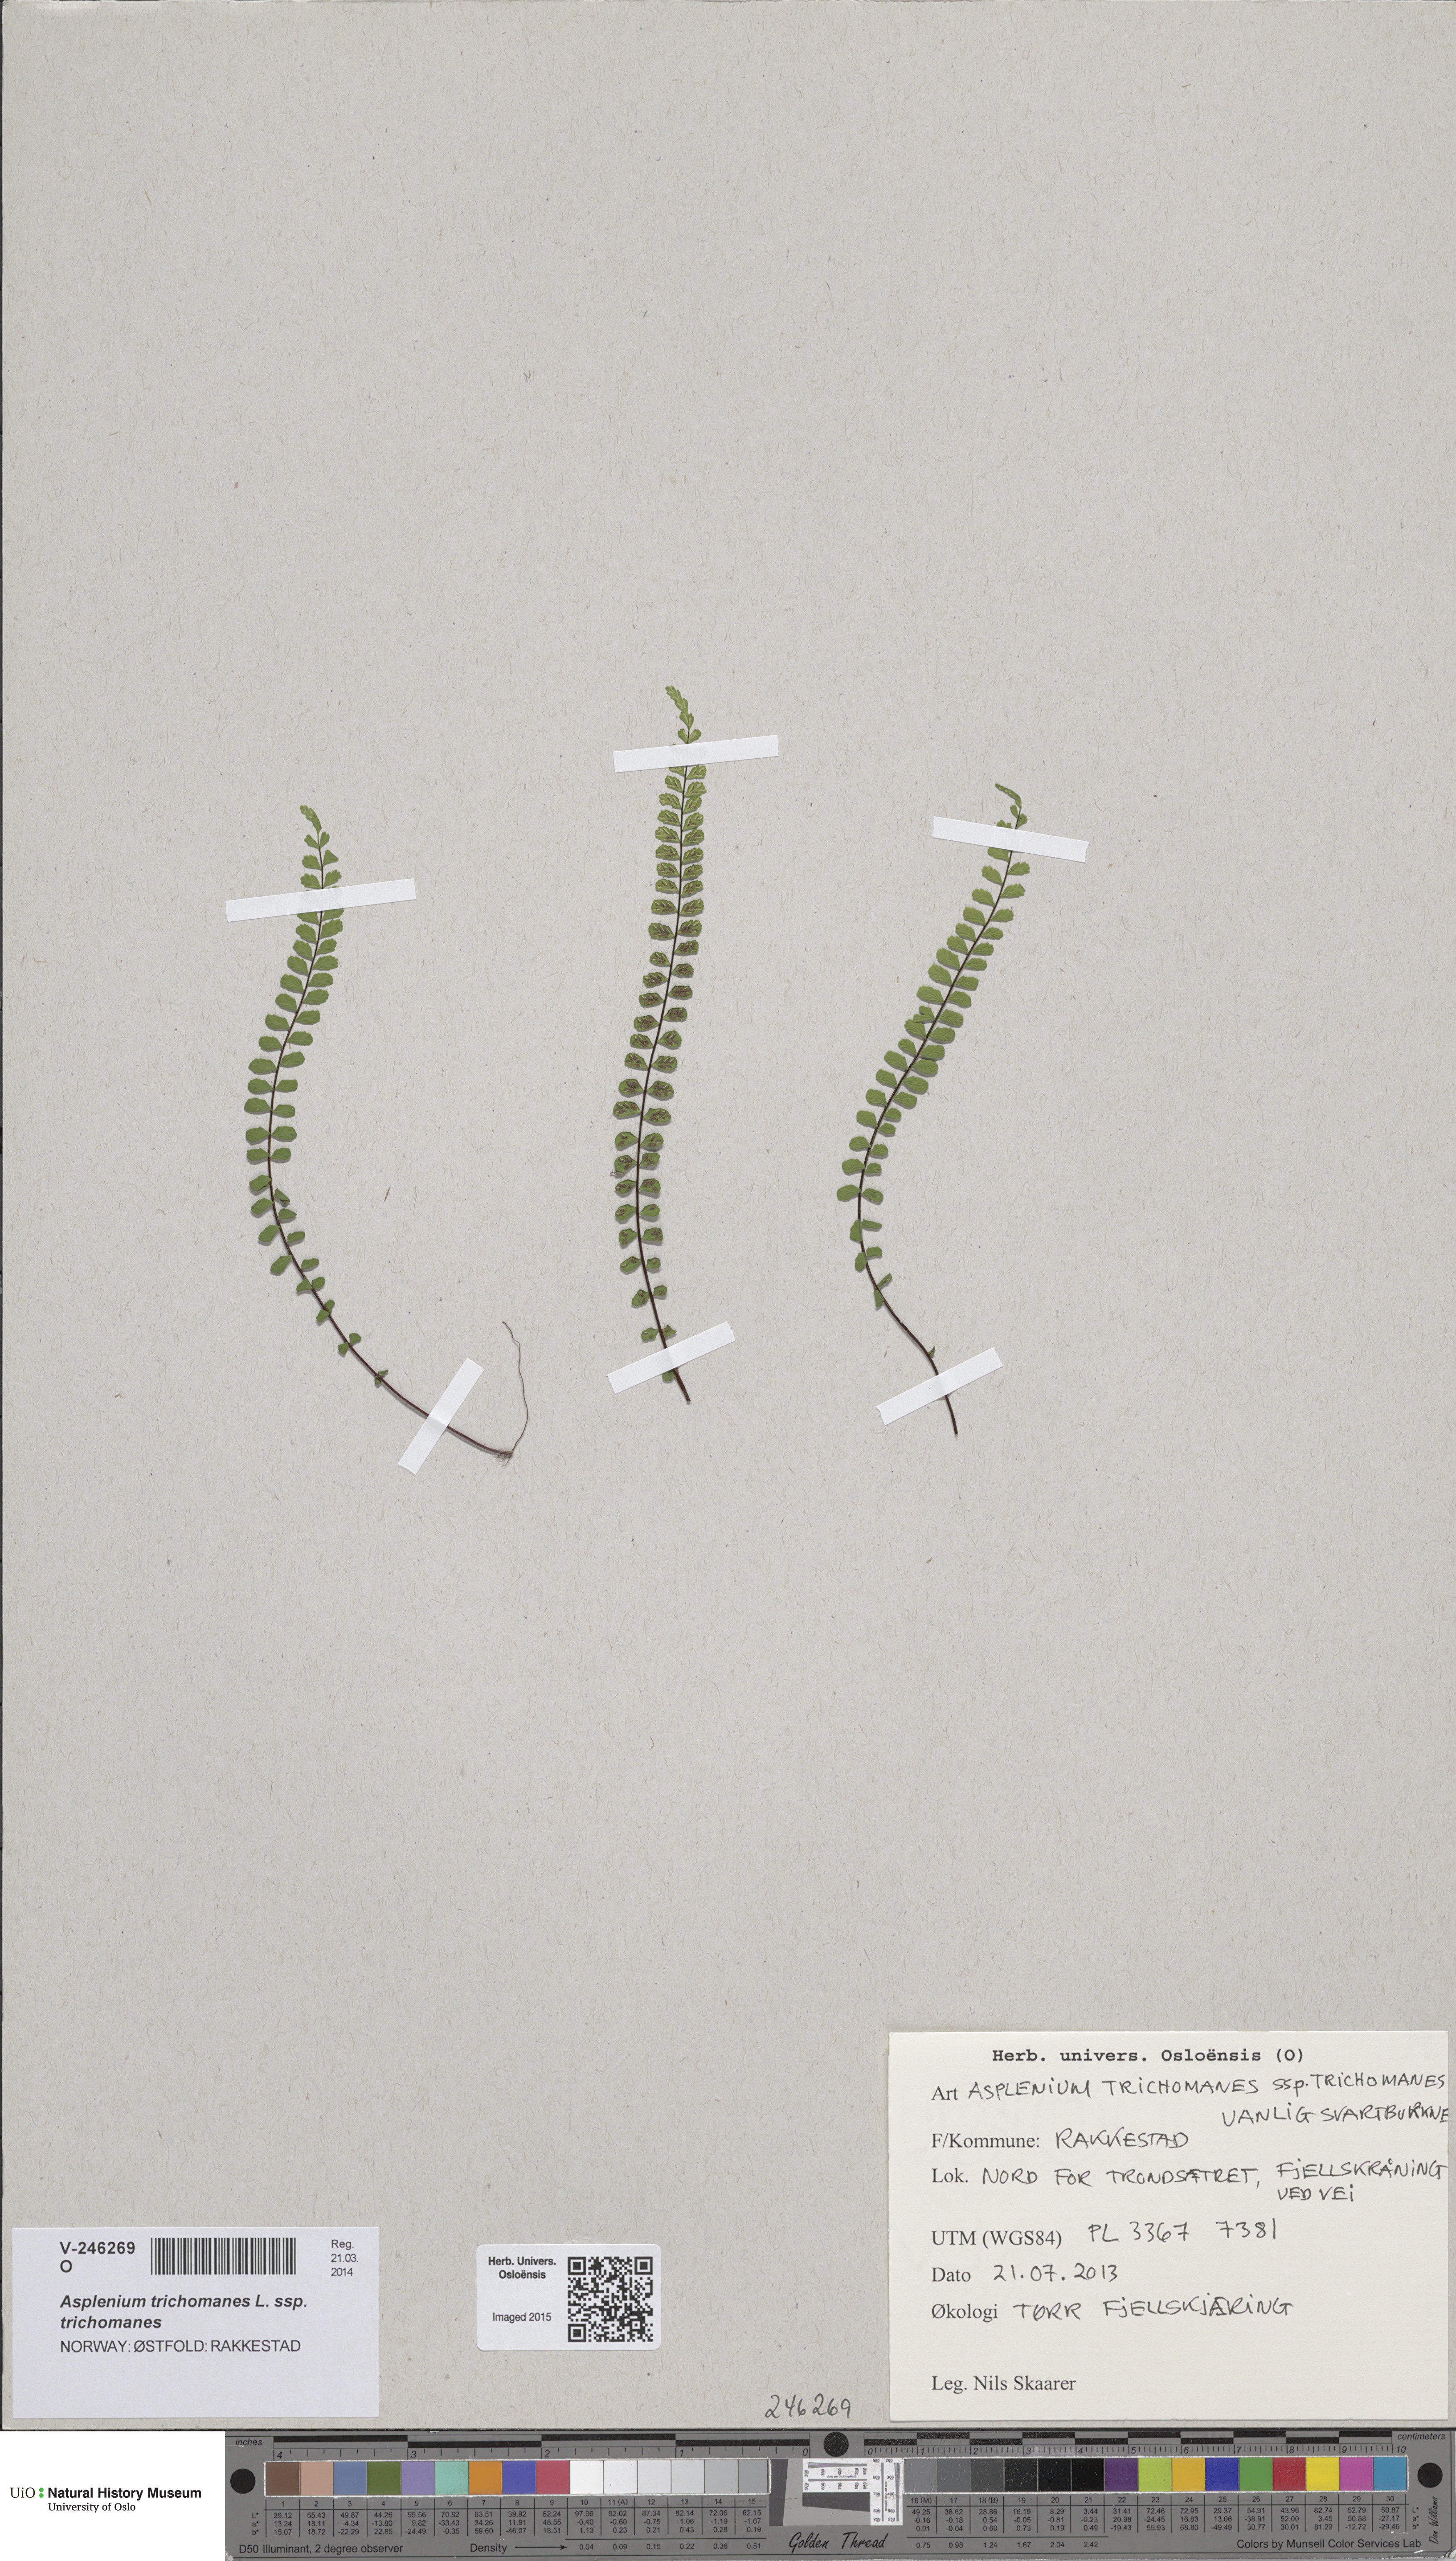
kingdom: Plantae
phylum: Tracheophyta
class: Polypodiopsida
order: Polypodiales
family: Aspleniaceae
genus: Asplenium
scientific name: Asplenium trichomanes
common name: Maidenhair spleenwort
